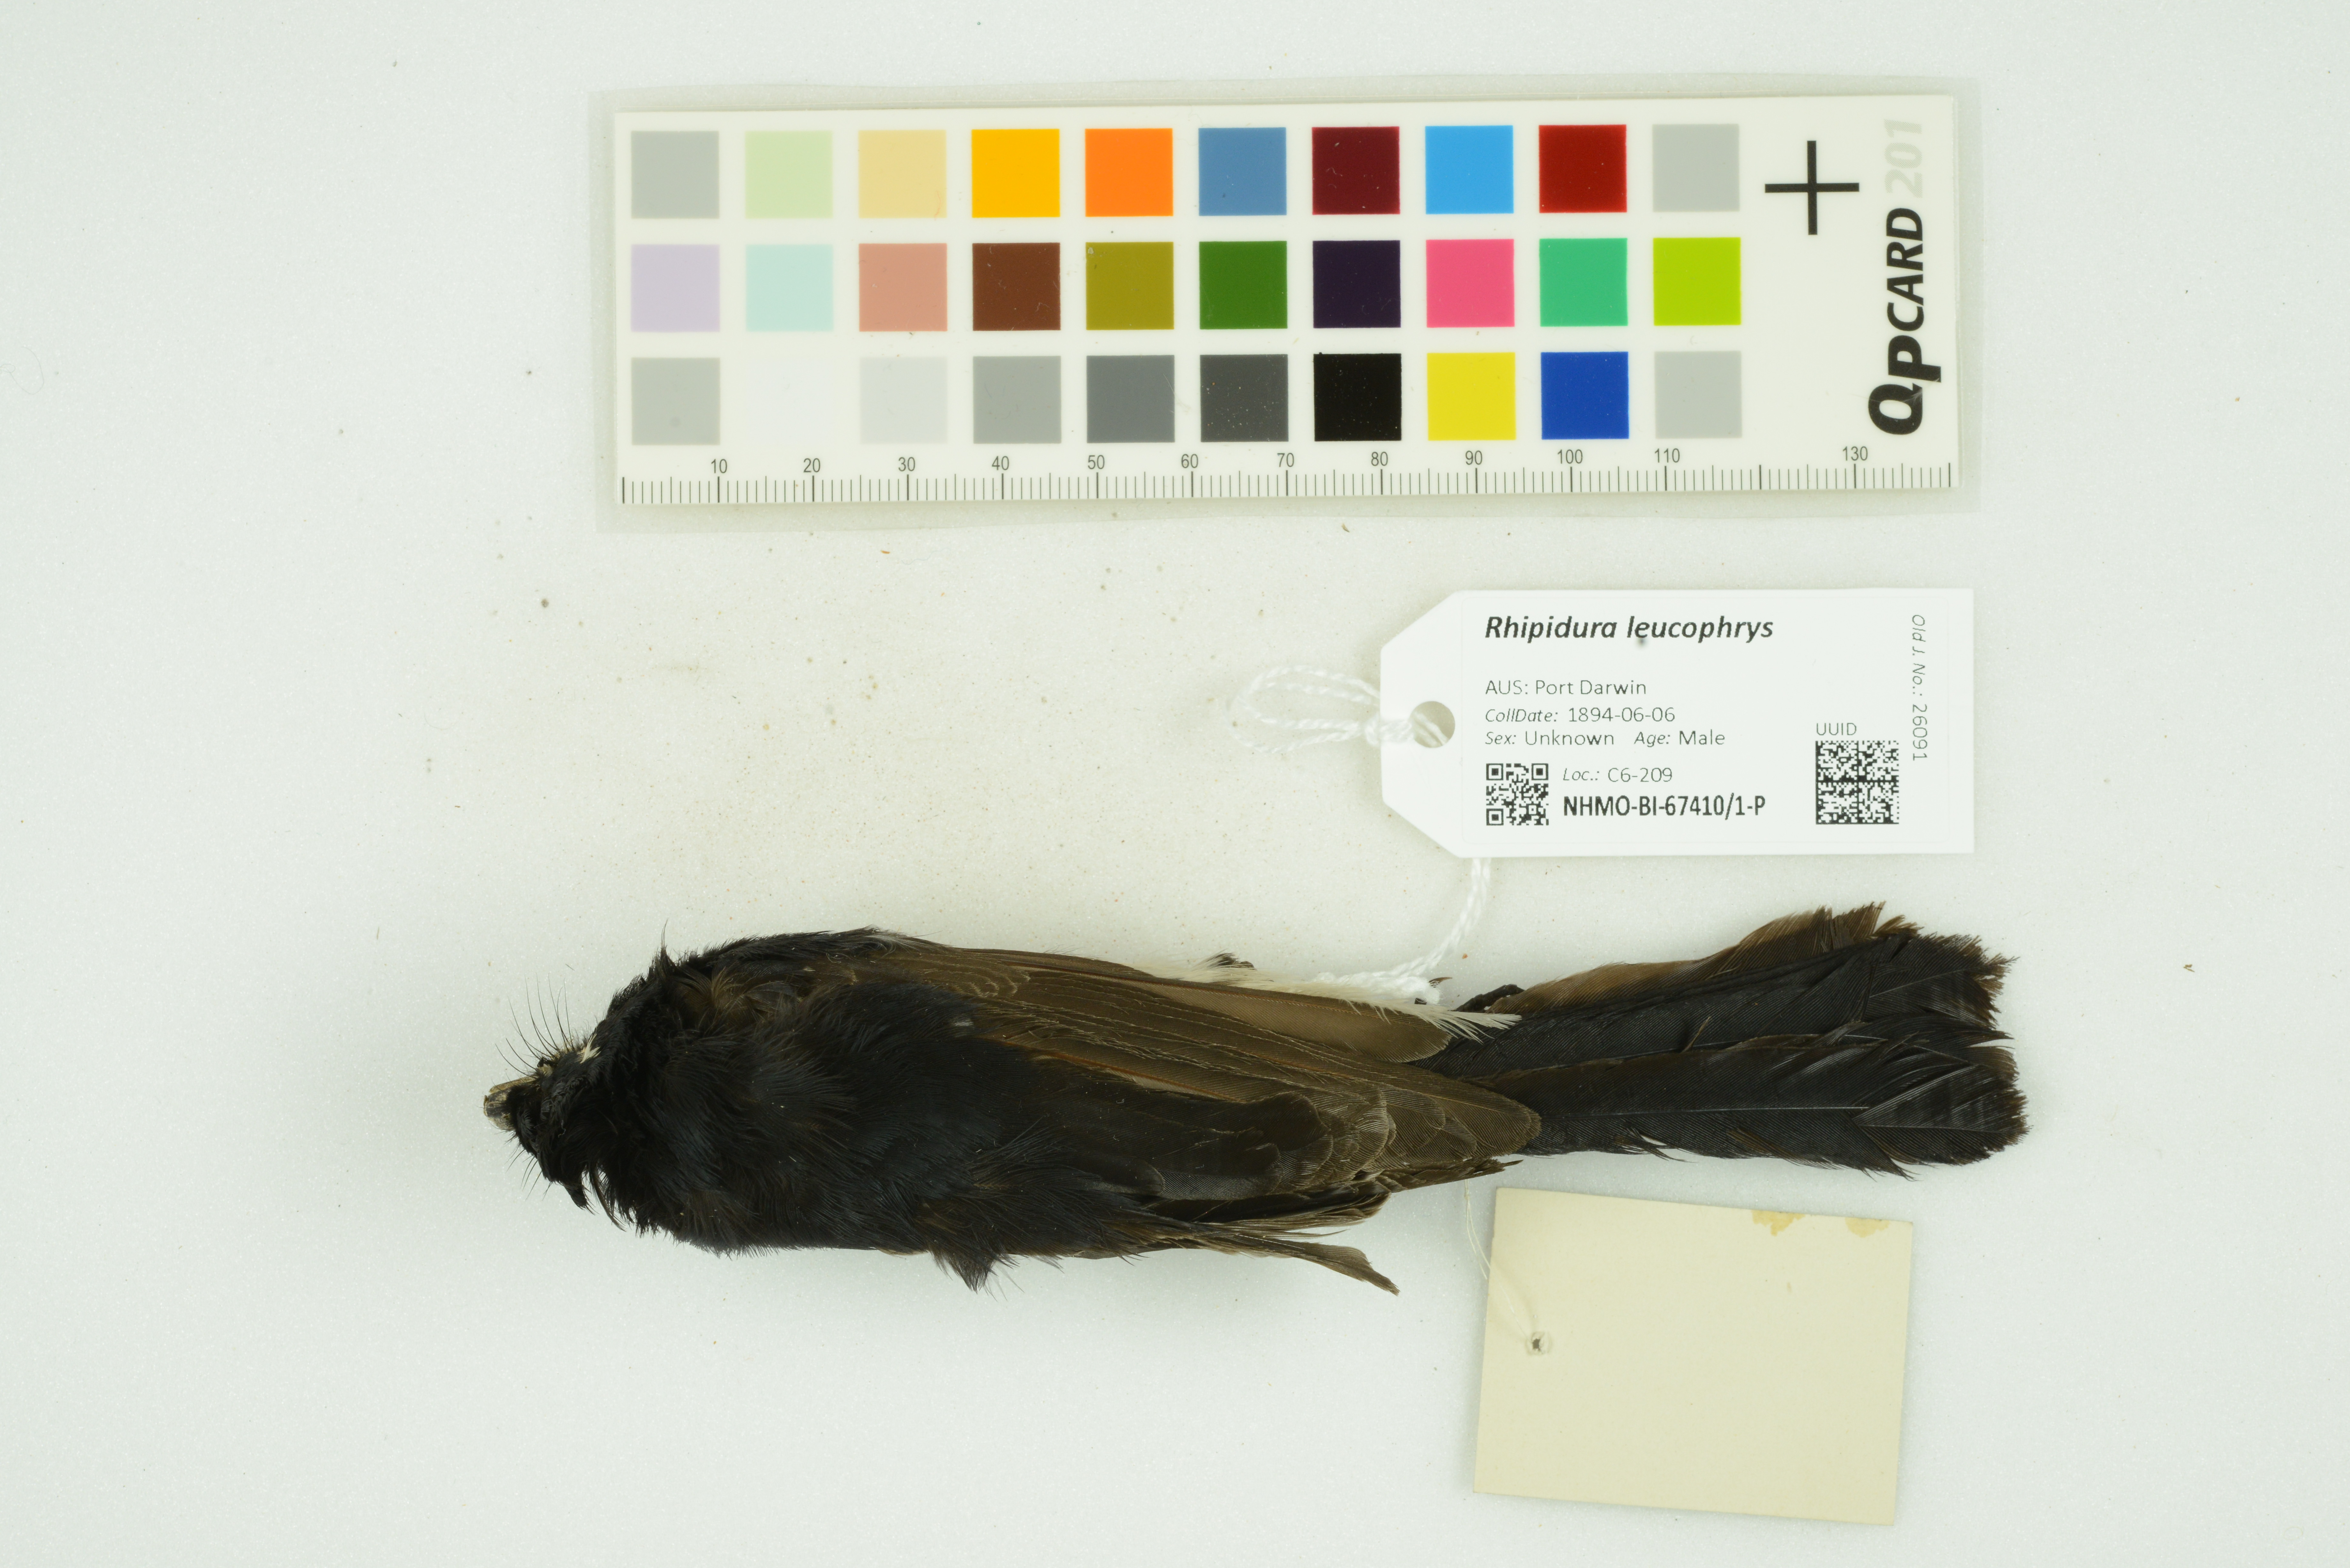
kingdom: Animalia
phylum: Chordata
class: Aves
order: Passeriformes
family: Rhipiduridae
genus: Rhipidura
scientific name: Rhipidura leucophrys
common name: Willie wagtail
